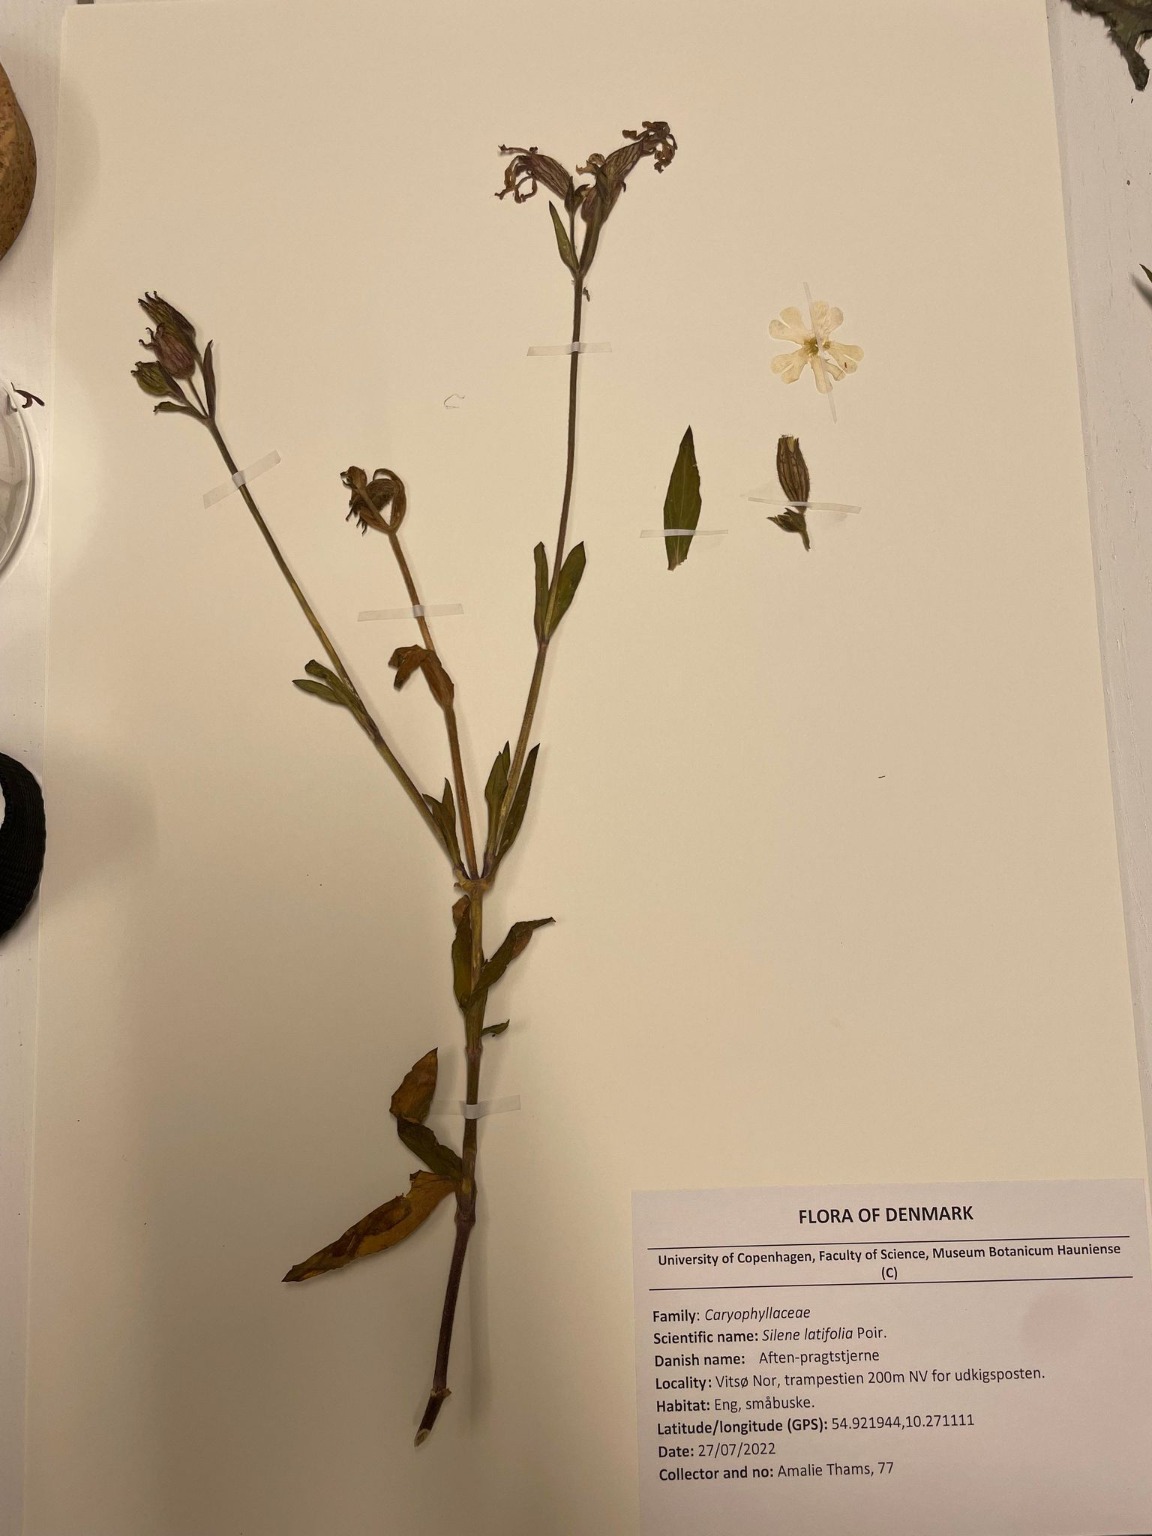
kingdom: Plantae
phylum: Tracheophyta
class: Magnoliopsida
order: Caryophyllales
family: Caryophyllaceae
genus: Silene
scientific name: Silene latifolia
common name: Aftenpragtstjerne
